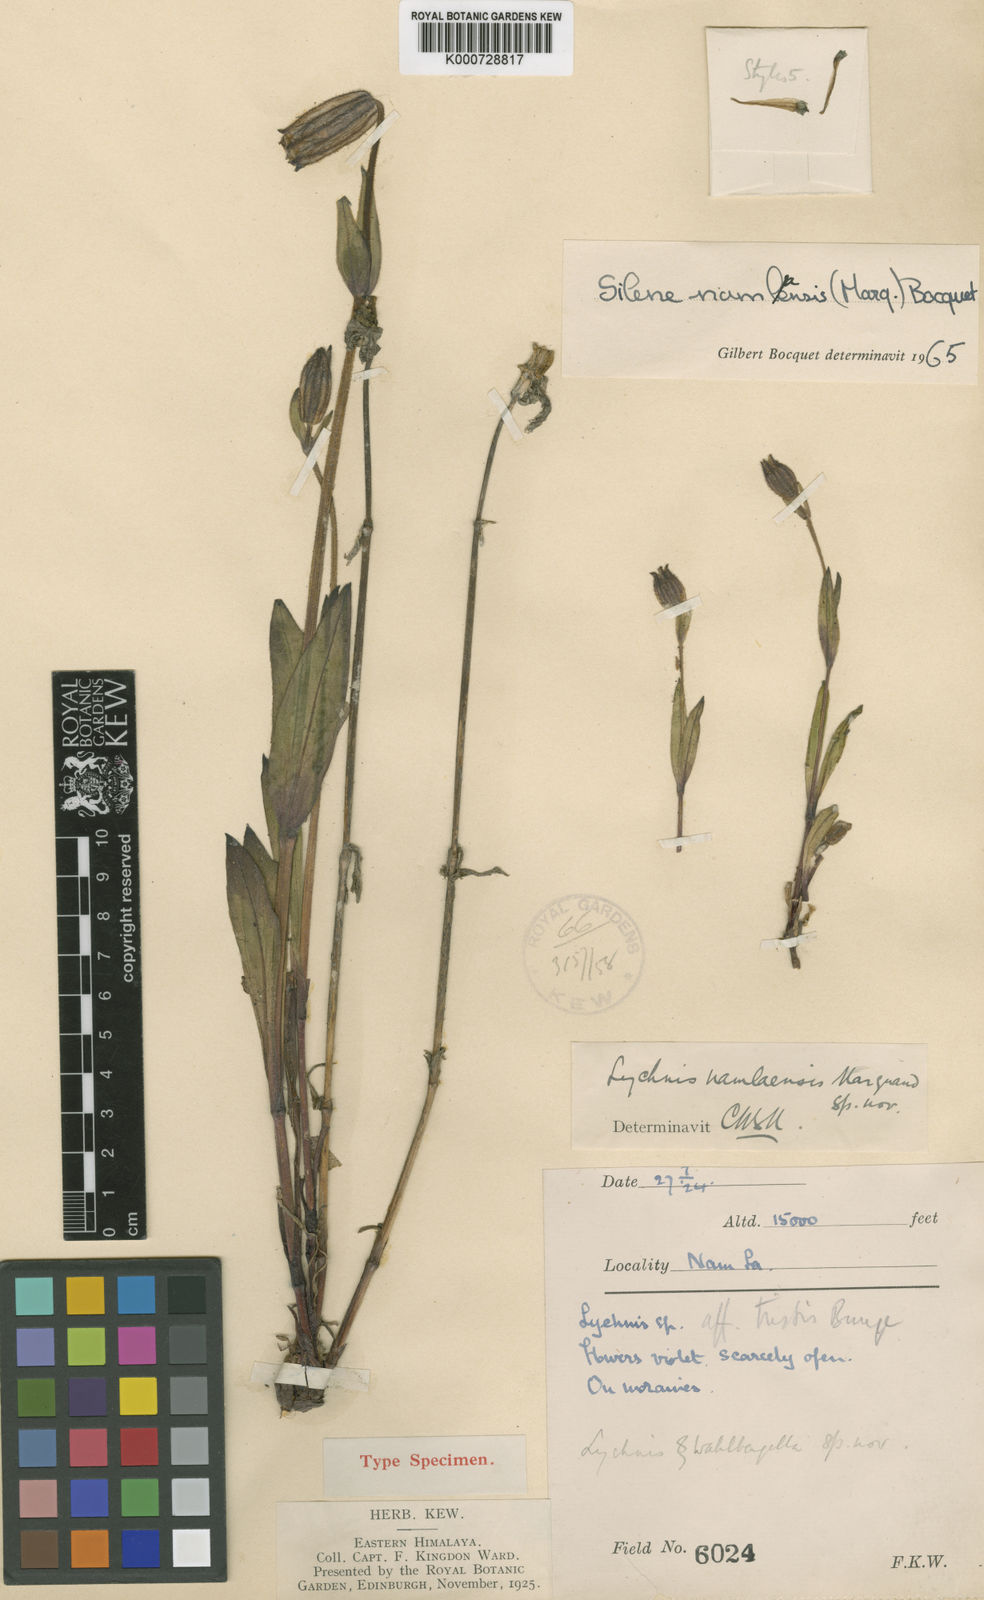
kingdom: Plantae
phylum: Tracheophyta
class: Magnoliopsida
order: Caryophyllales
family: Caryophyllaceae
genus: Silene
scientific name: Silene namlaensis
